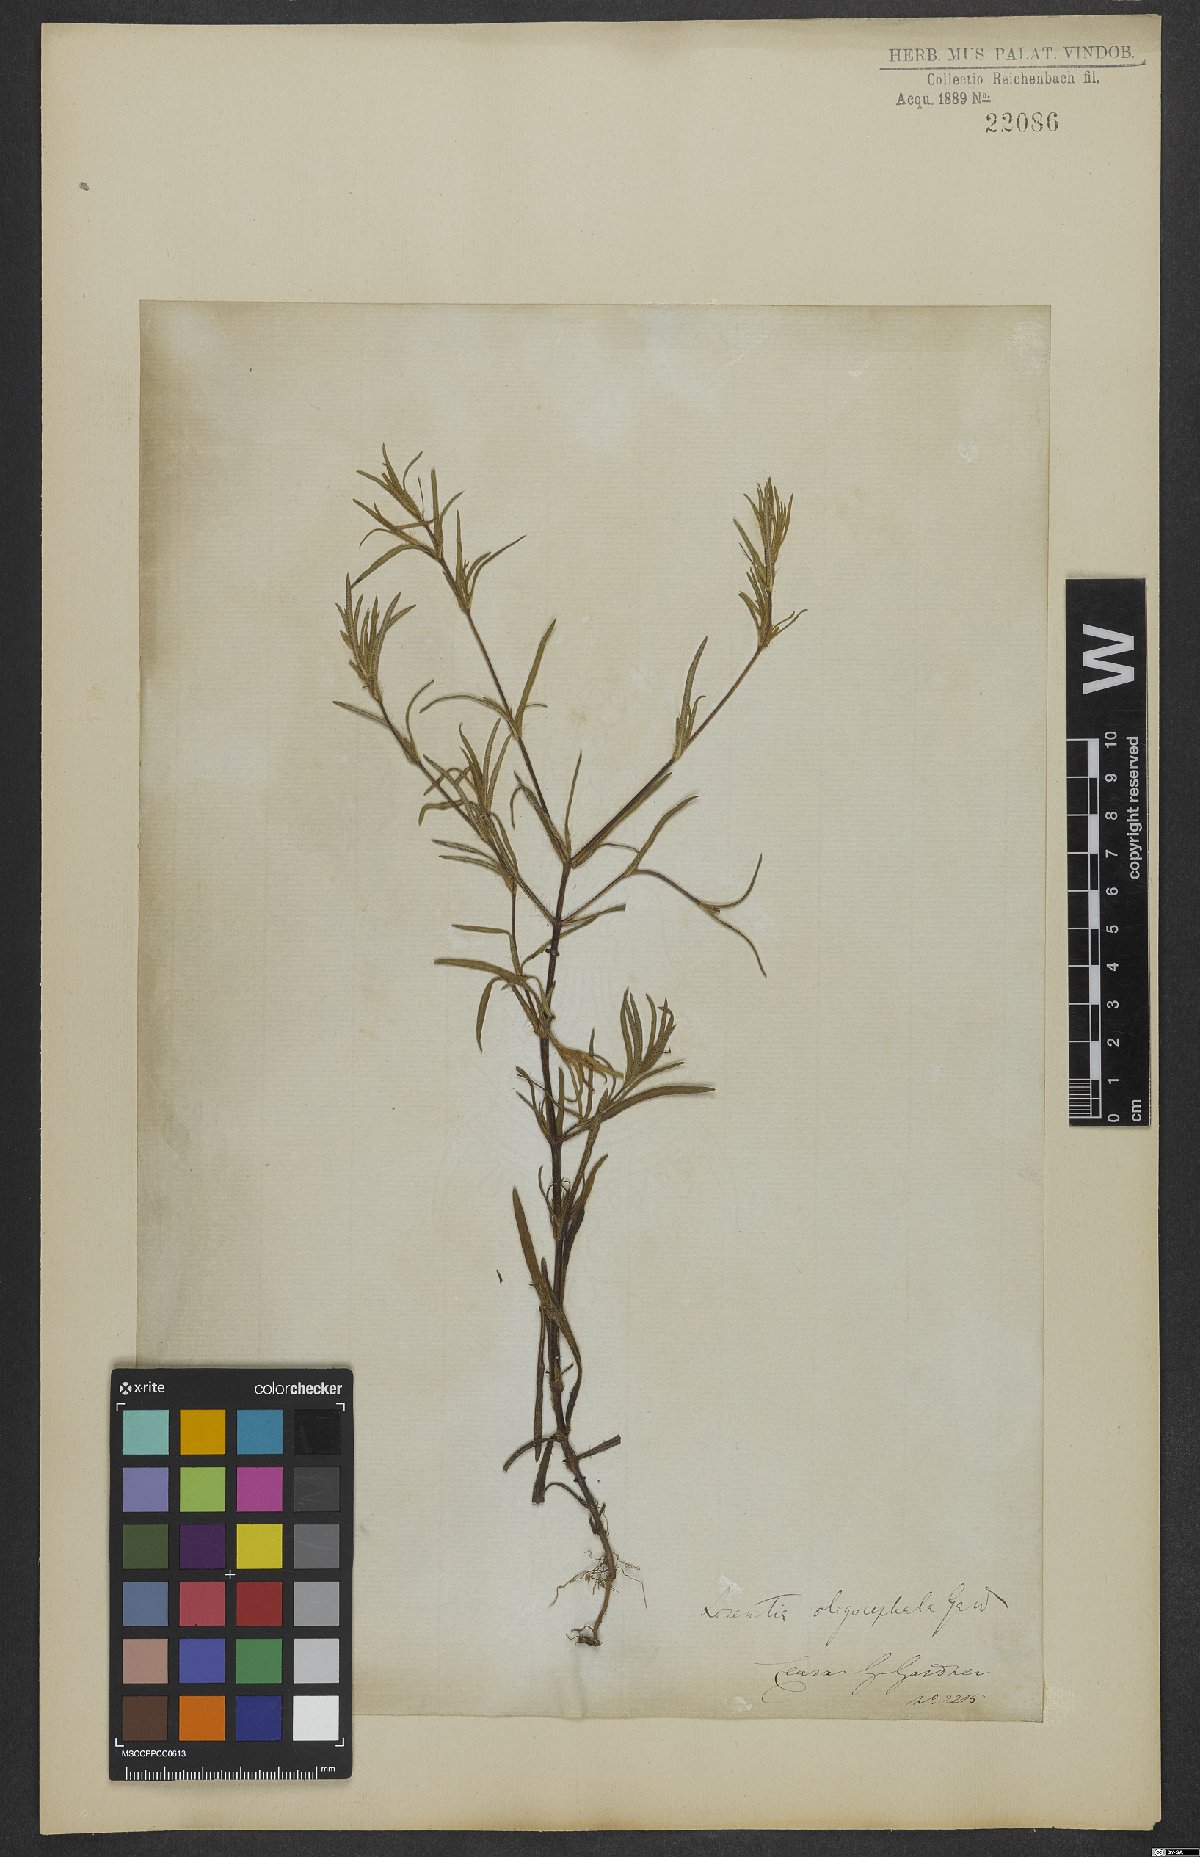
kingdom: Plantae
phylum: Tracheophyta
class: Magnoliopsida
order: Asterales
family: Asteraceae
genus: Pectis
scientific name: Pectis oligocephala
